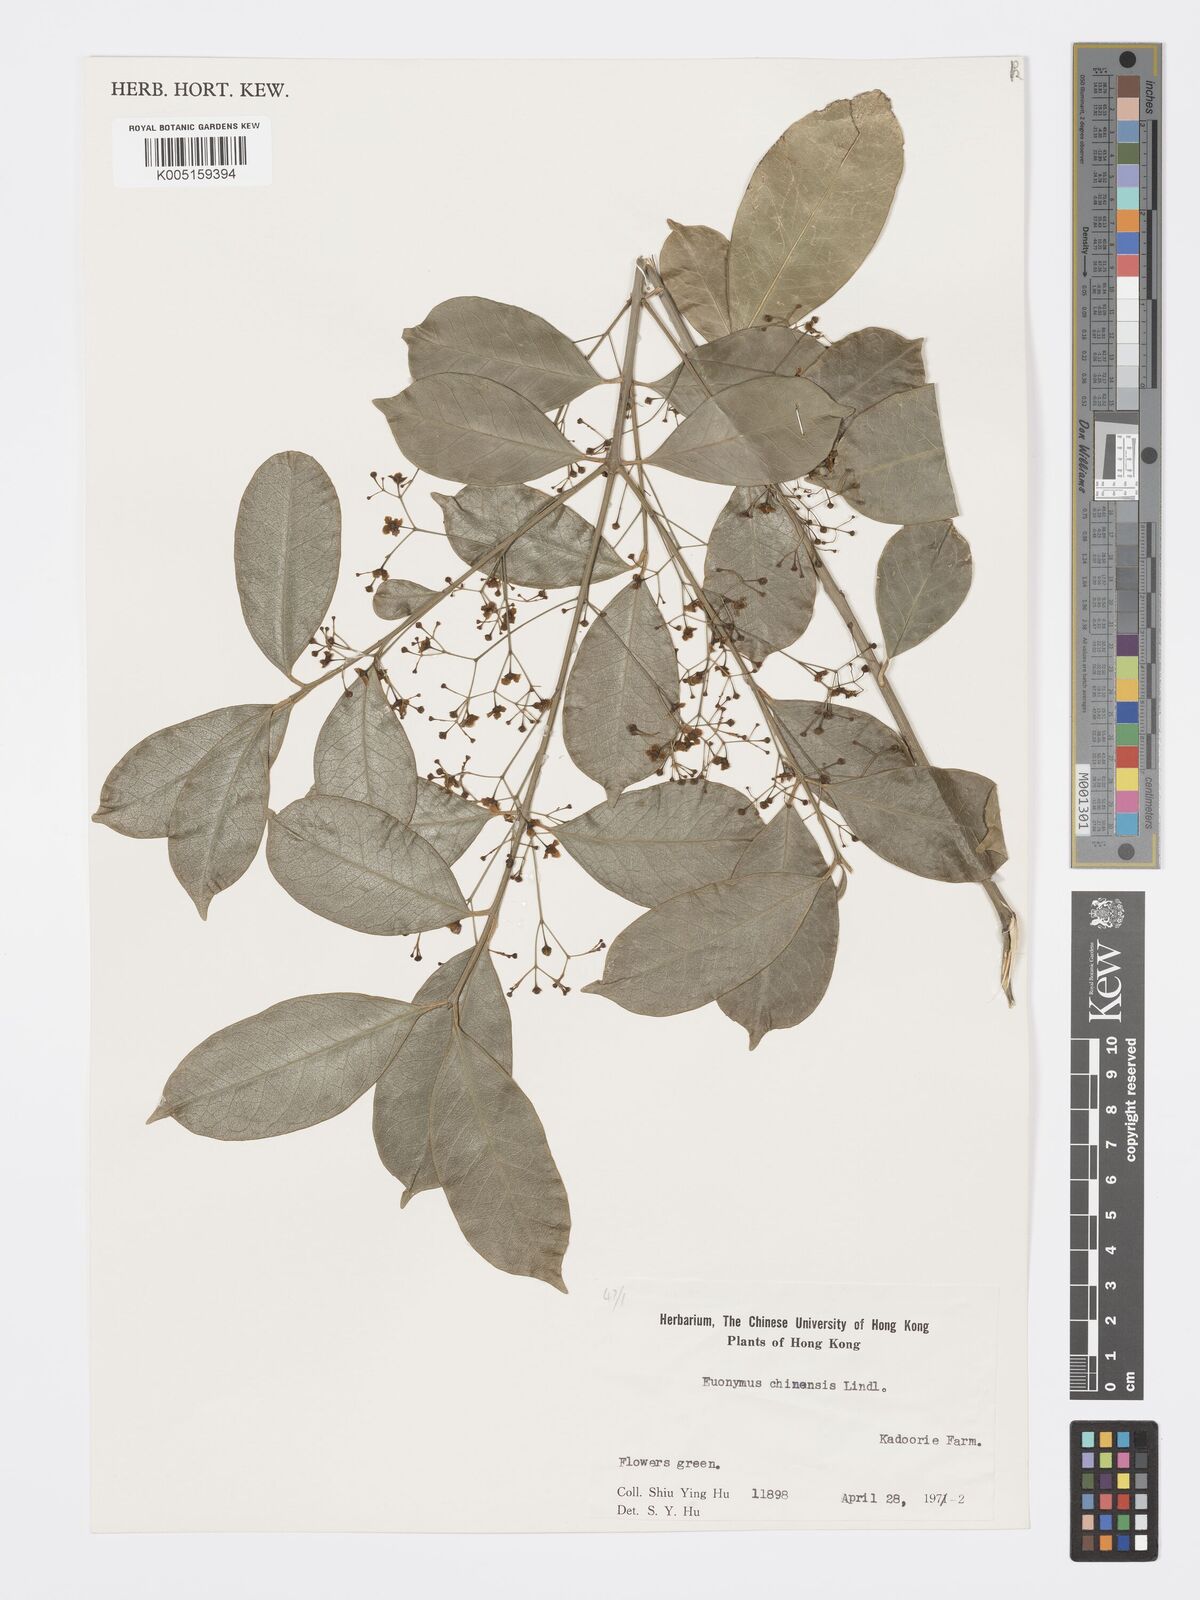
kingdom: Plantae
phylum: Tracheophyta
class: Magnoliopsida
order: Celastrales
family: Celastraceae
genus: Euonymus
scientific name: Euonymus nitidus
